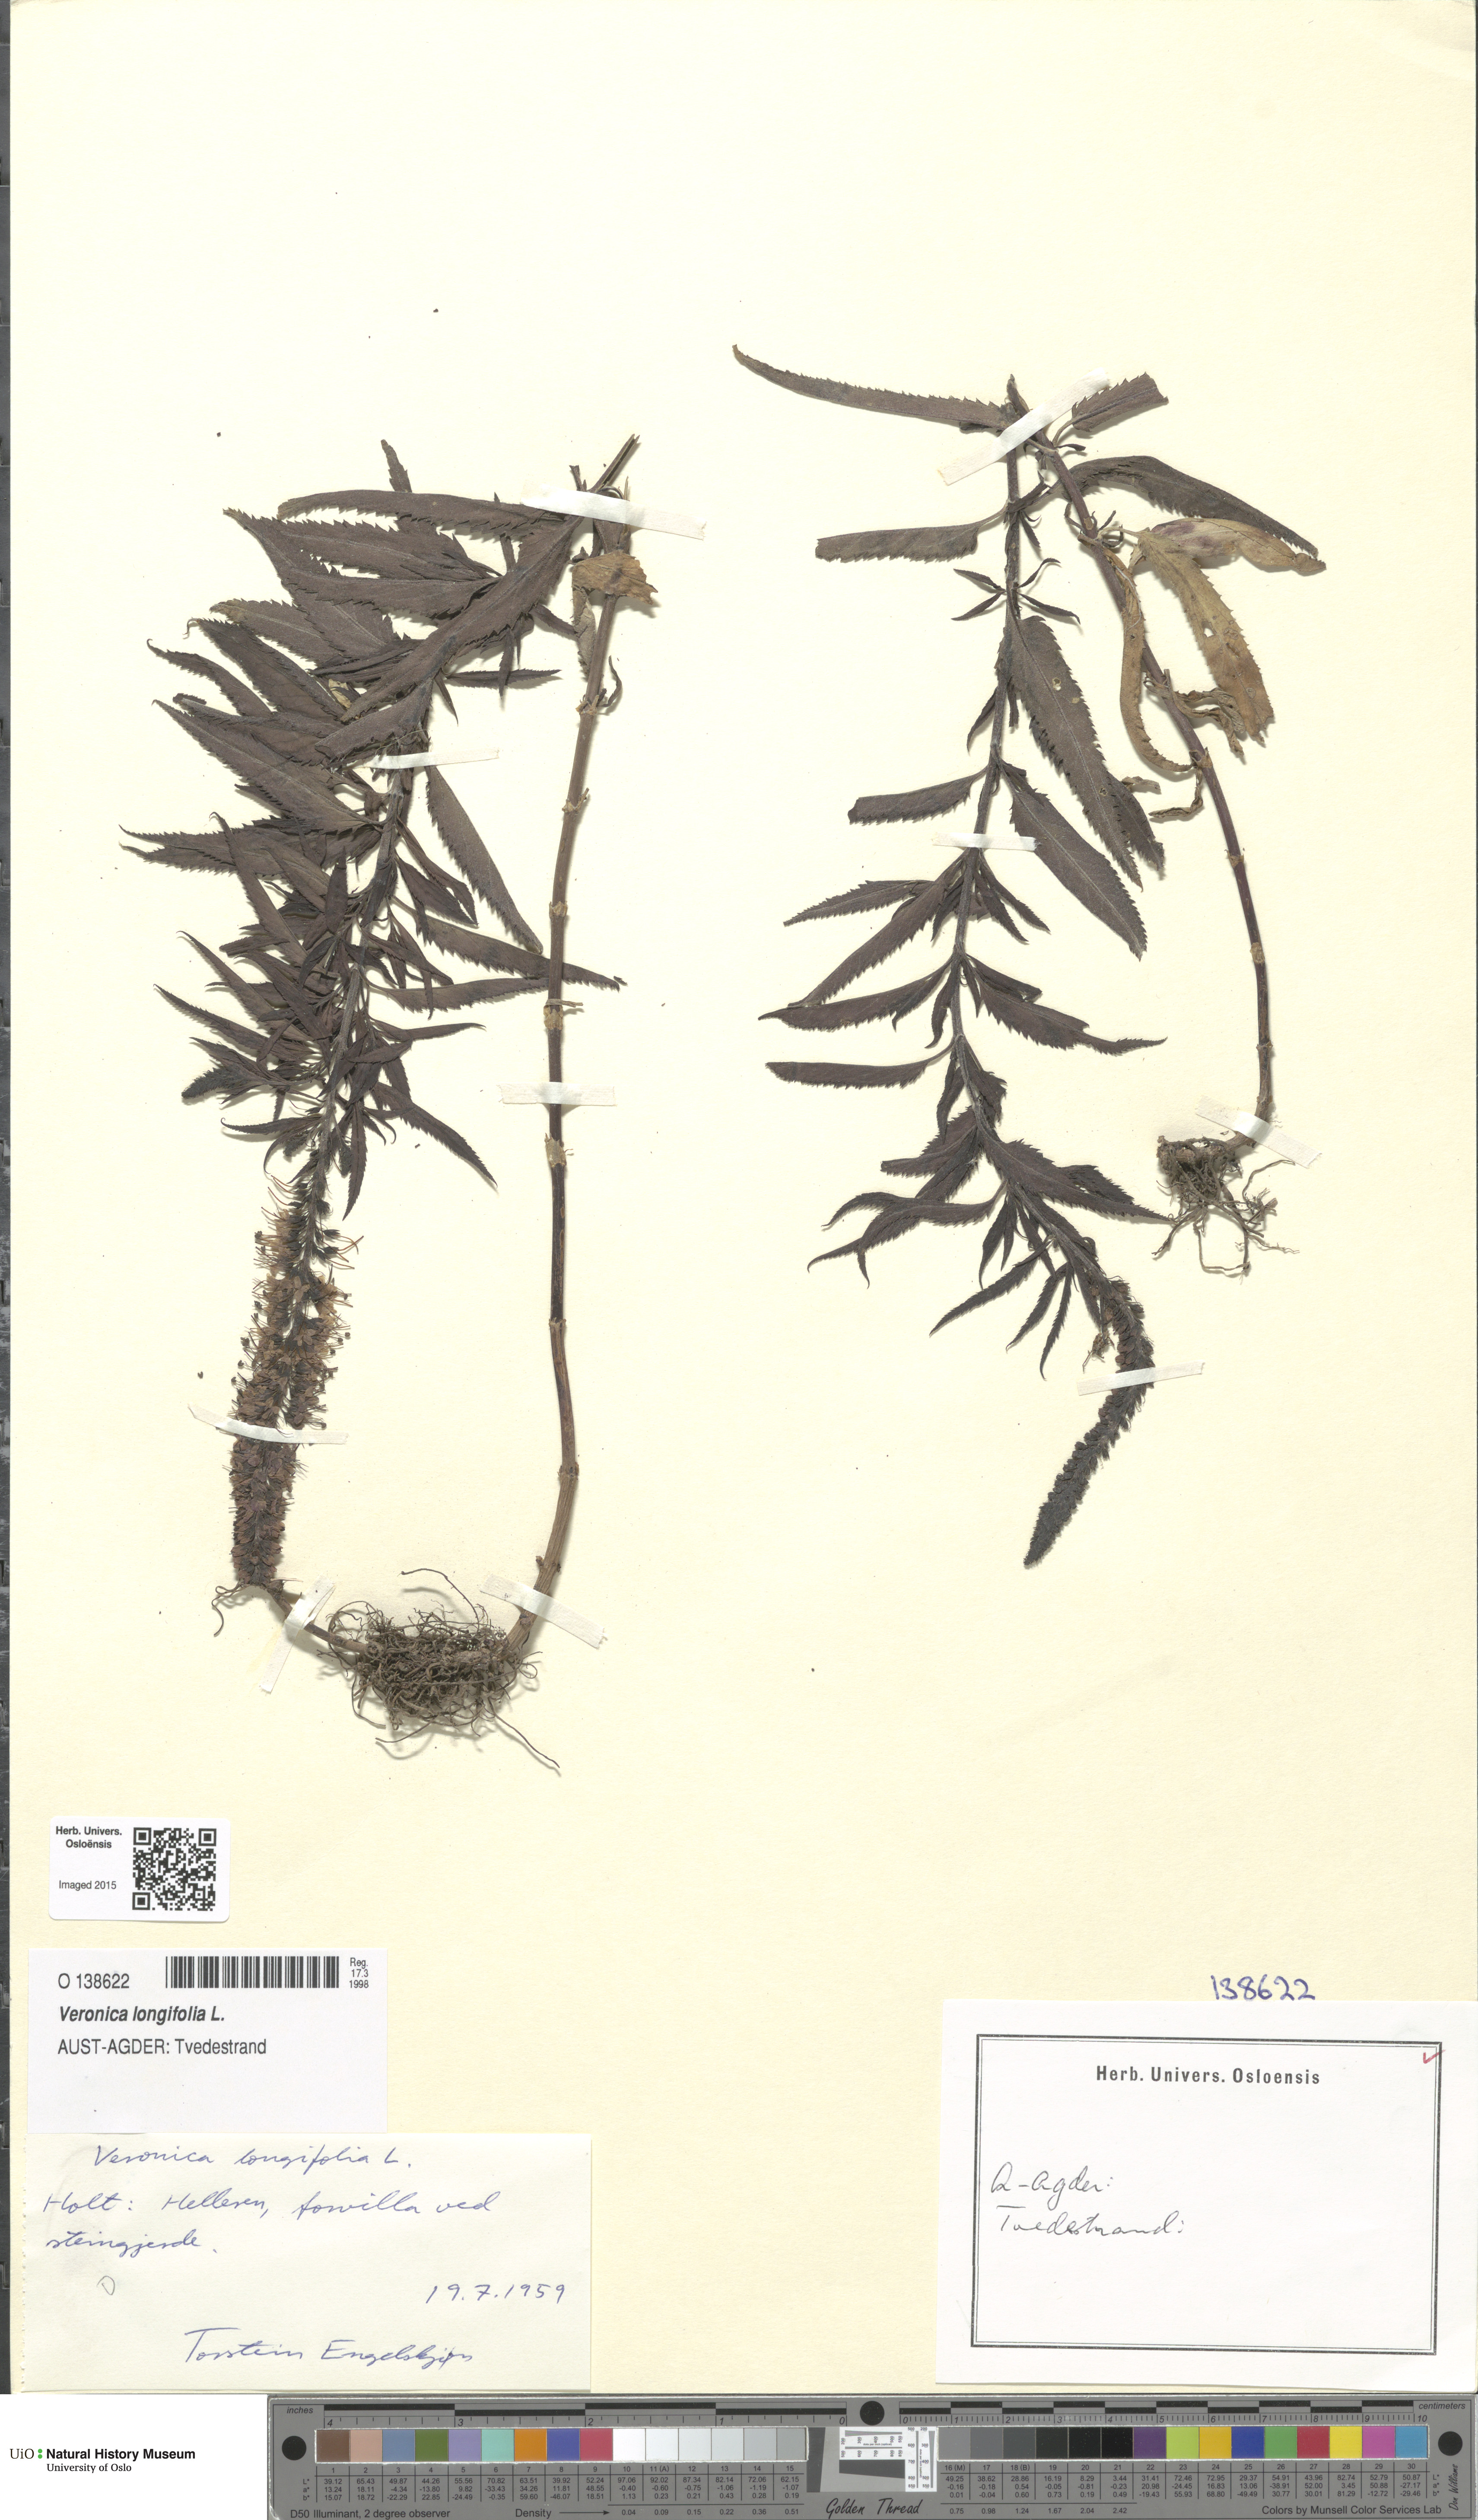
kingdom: Plantae
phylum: Tracheophyta
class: Magnoliopsida
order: Lamiales
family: Plantaginaceae
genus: Veronica
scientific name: Veronica longifolia
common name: Garden speedwell
